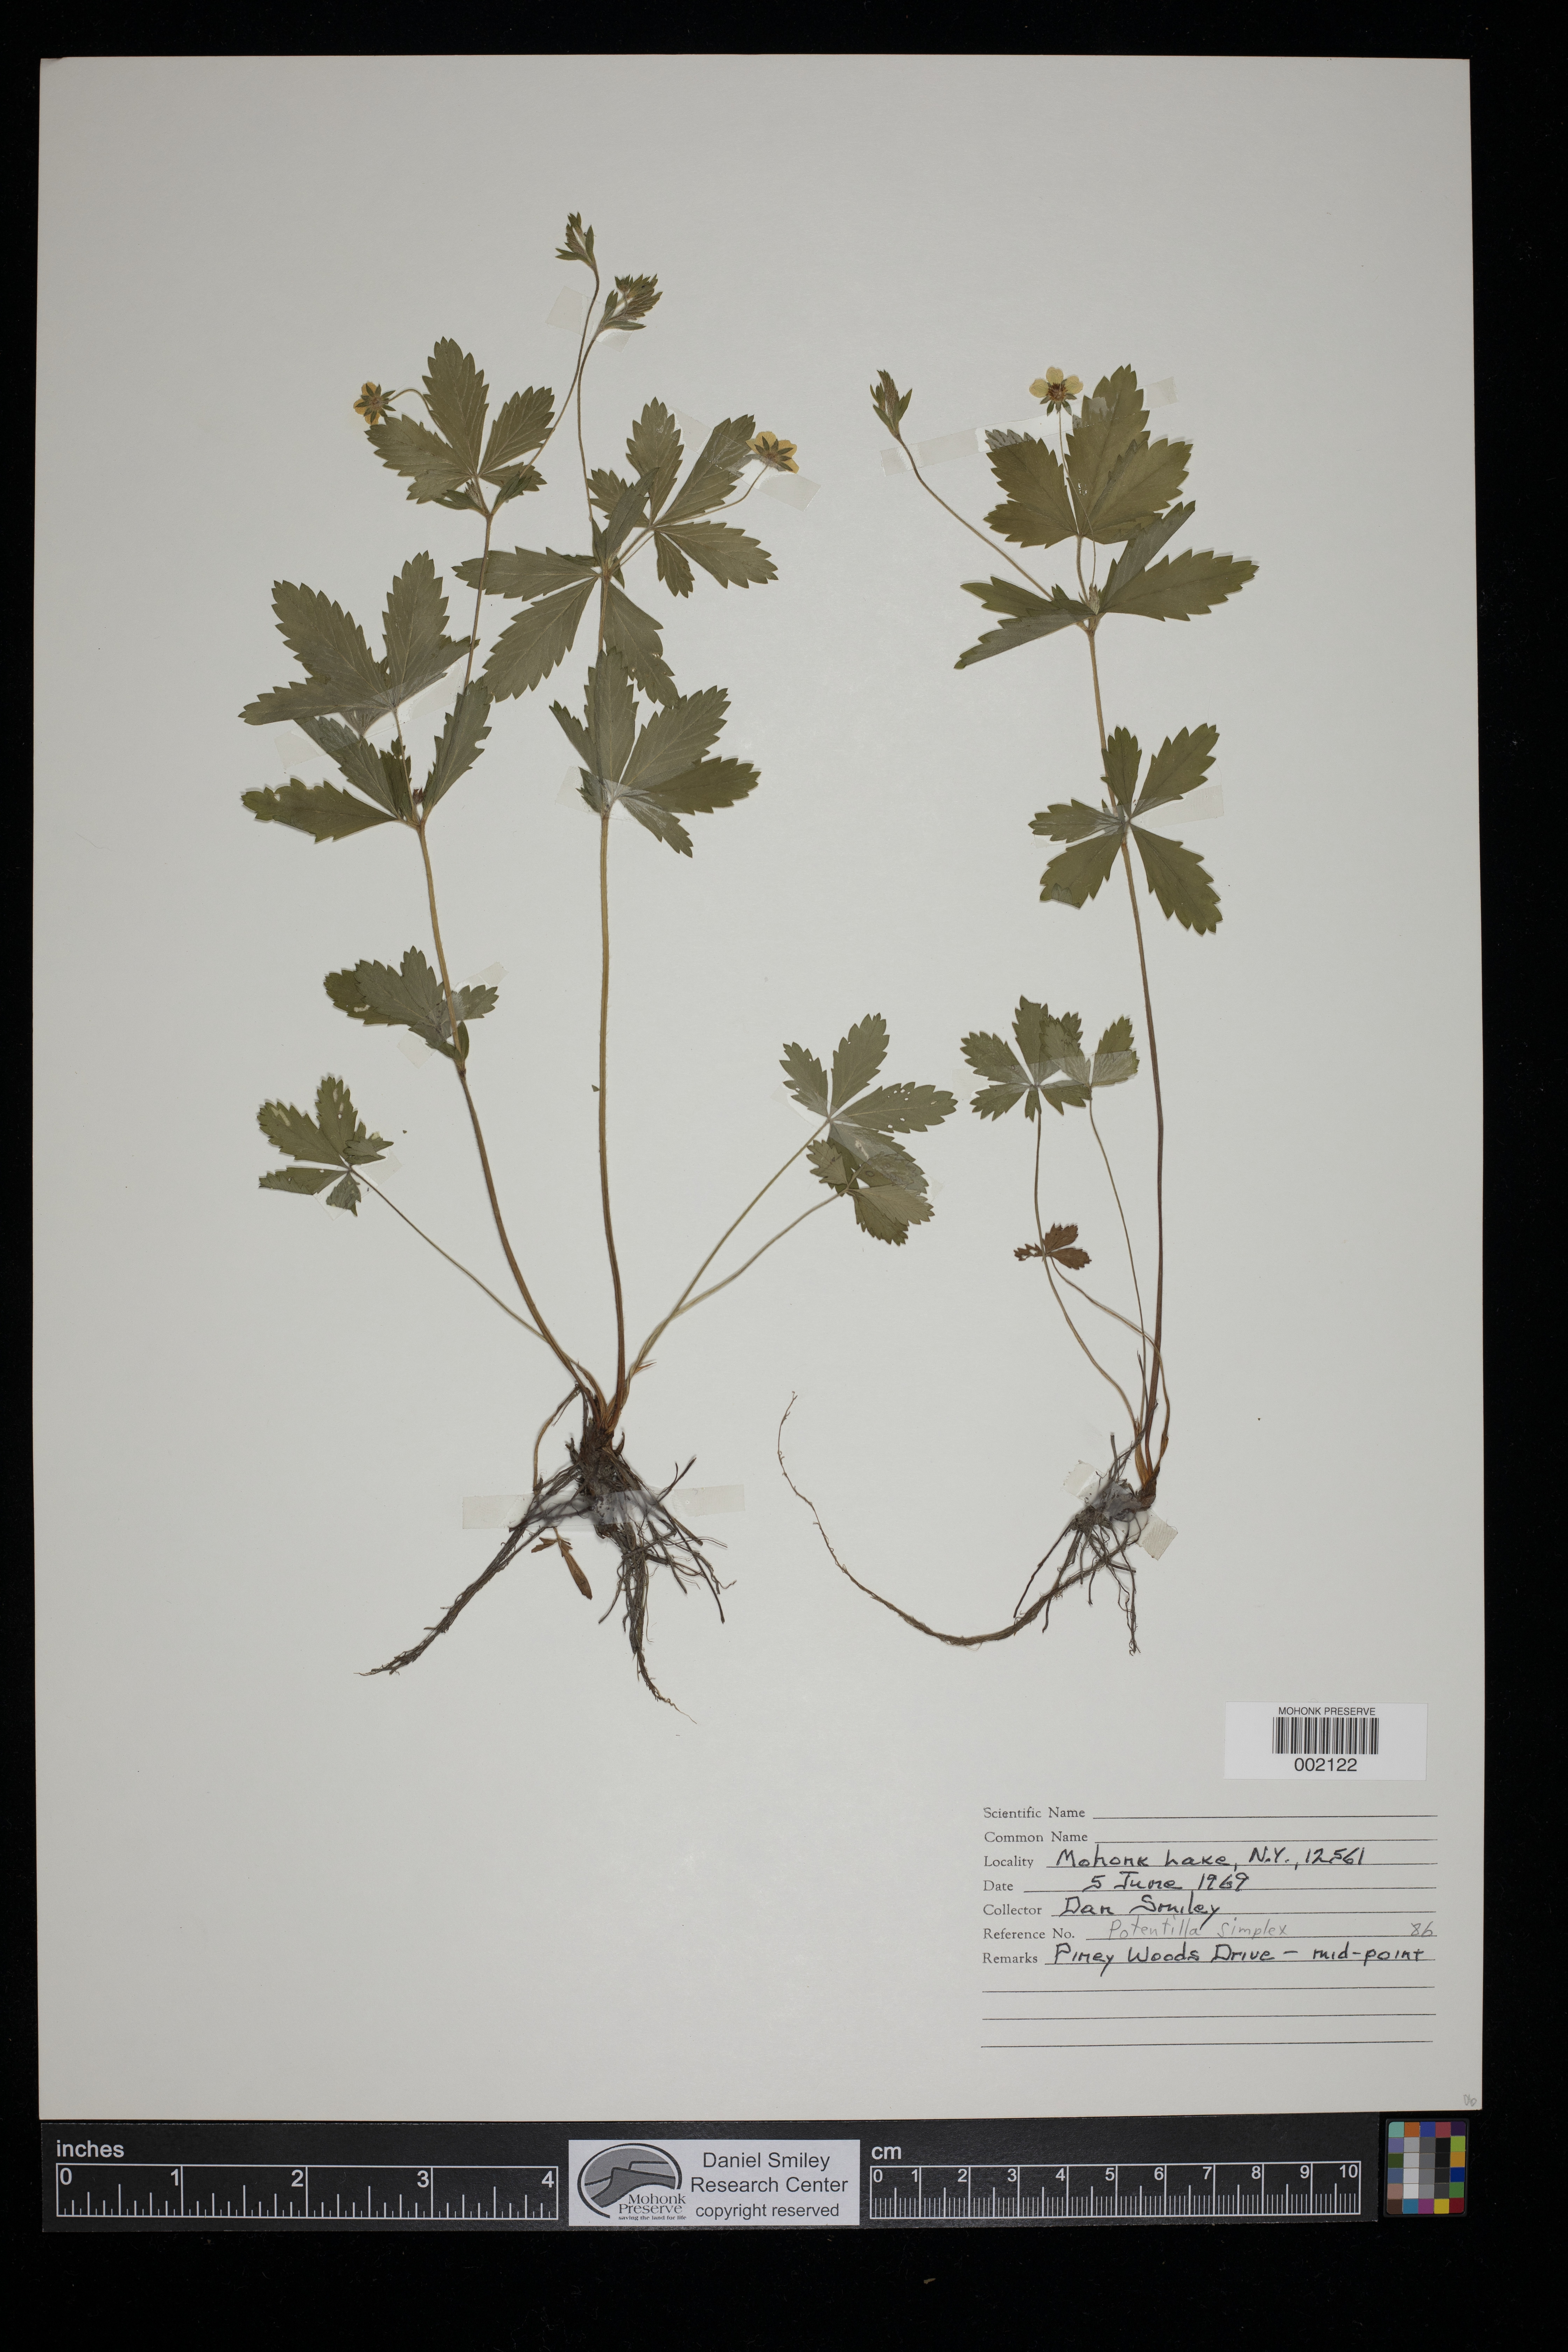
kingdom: Plantae
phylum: Tracheophyta
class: Magnoliopsida
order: Rosales
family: Rosaceae
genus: Potentilla
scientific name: Potentilla simplex
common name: Old field cinquefoil
